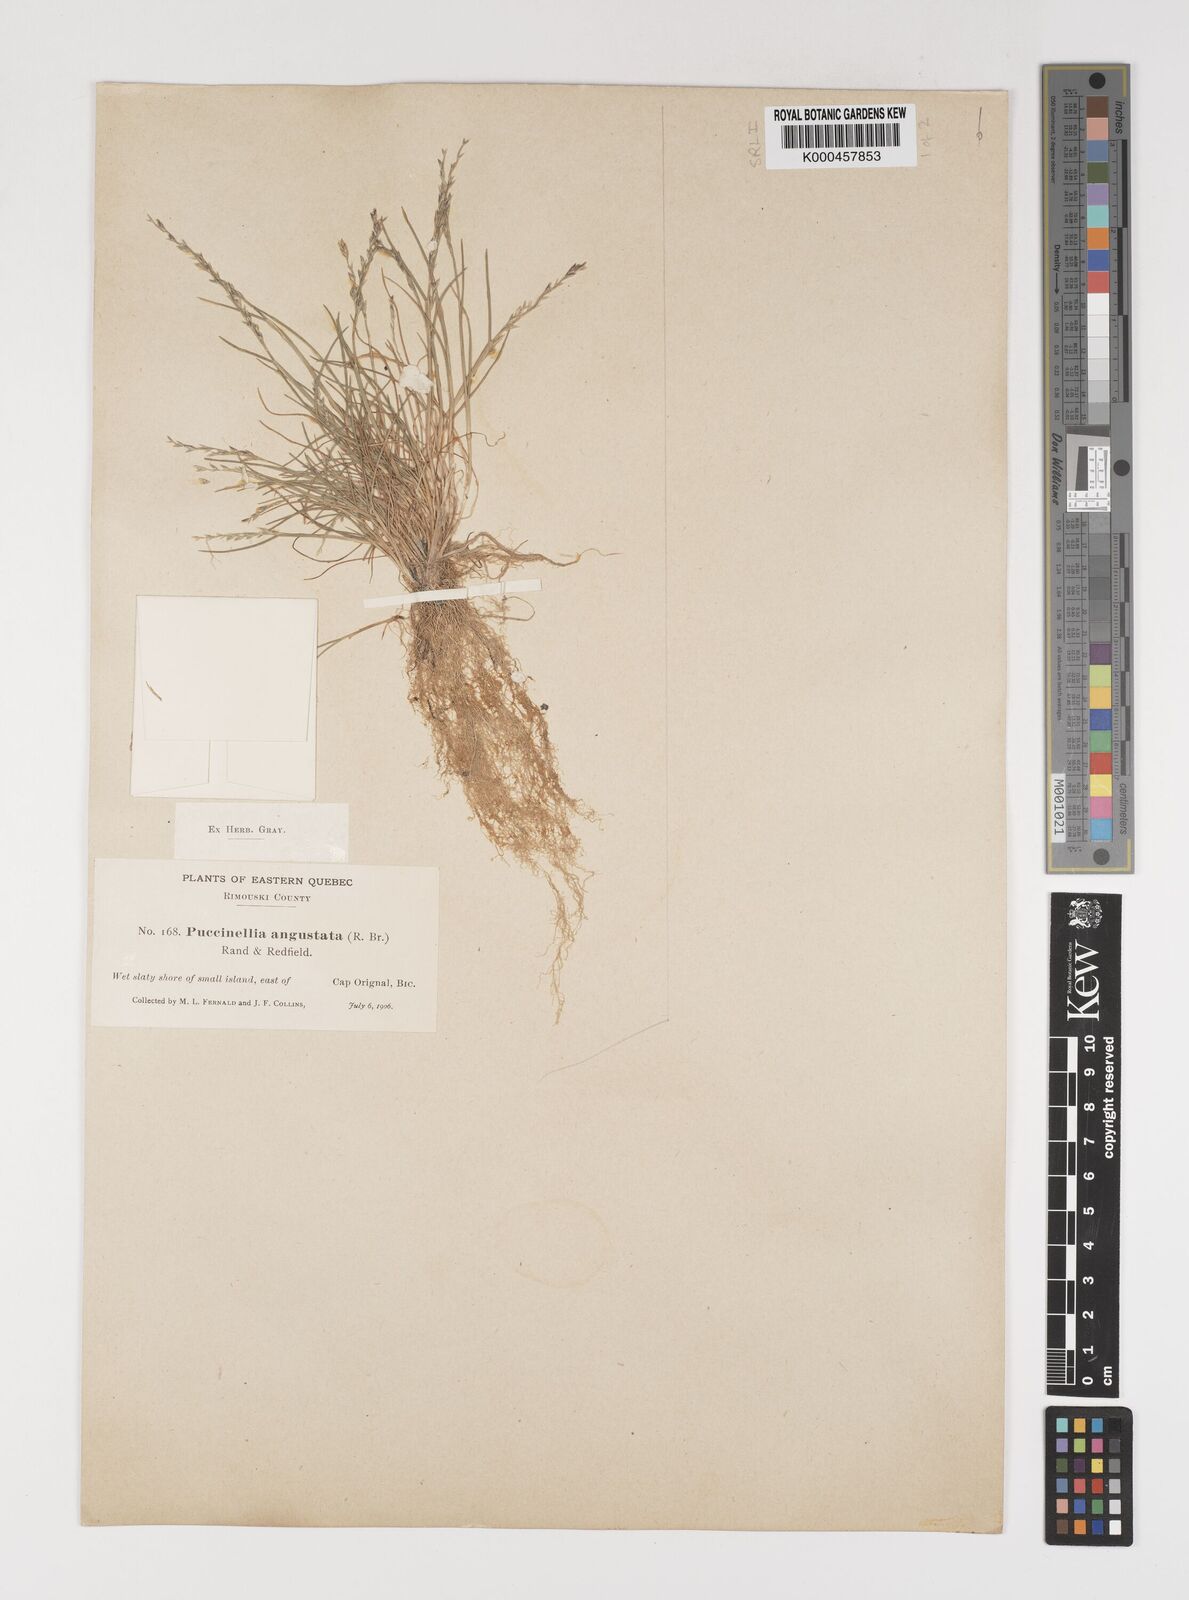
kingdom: Plantae
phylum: Tracheophyta
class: Liliopsida
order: Poales
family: Poaceae
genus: Puccinellia
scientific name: Puccinellia angustata
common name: Narrow alkaligrass
